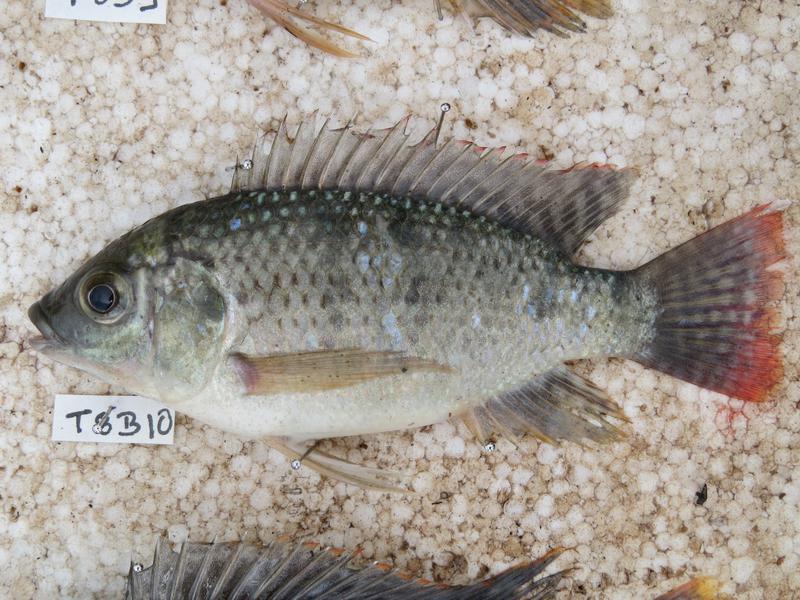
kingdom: Animalia
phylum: Chordata
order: Perciformes
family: Cichlidae
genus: Oreochromis
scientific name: Oreochromis shiranus
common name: Chilwa tilapia
